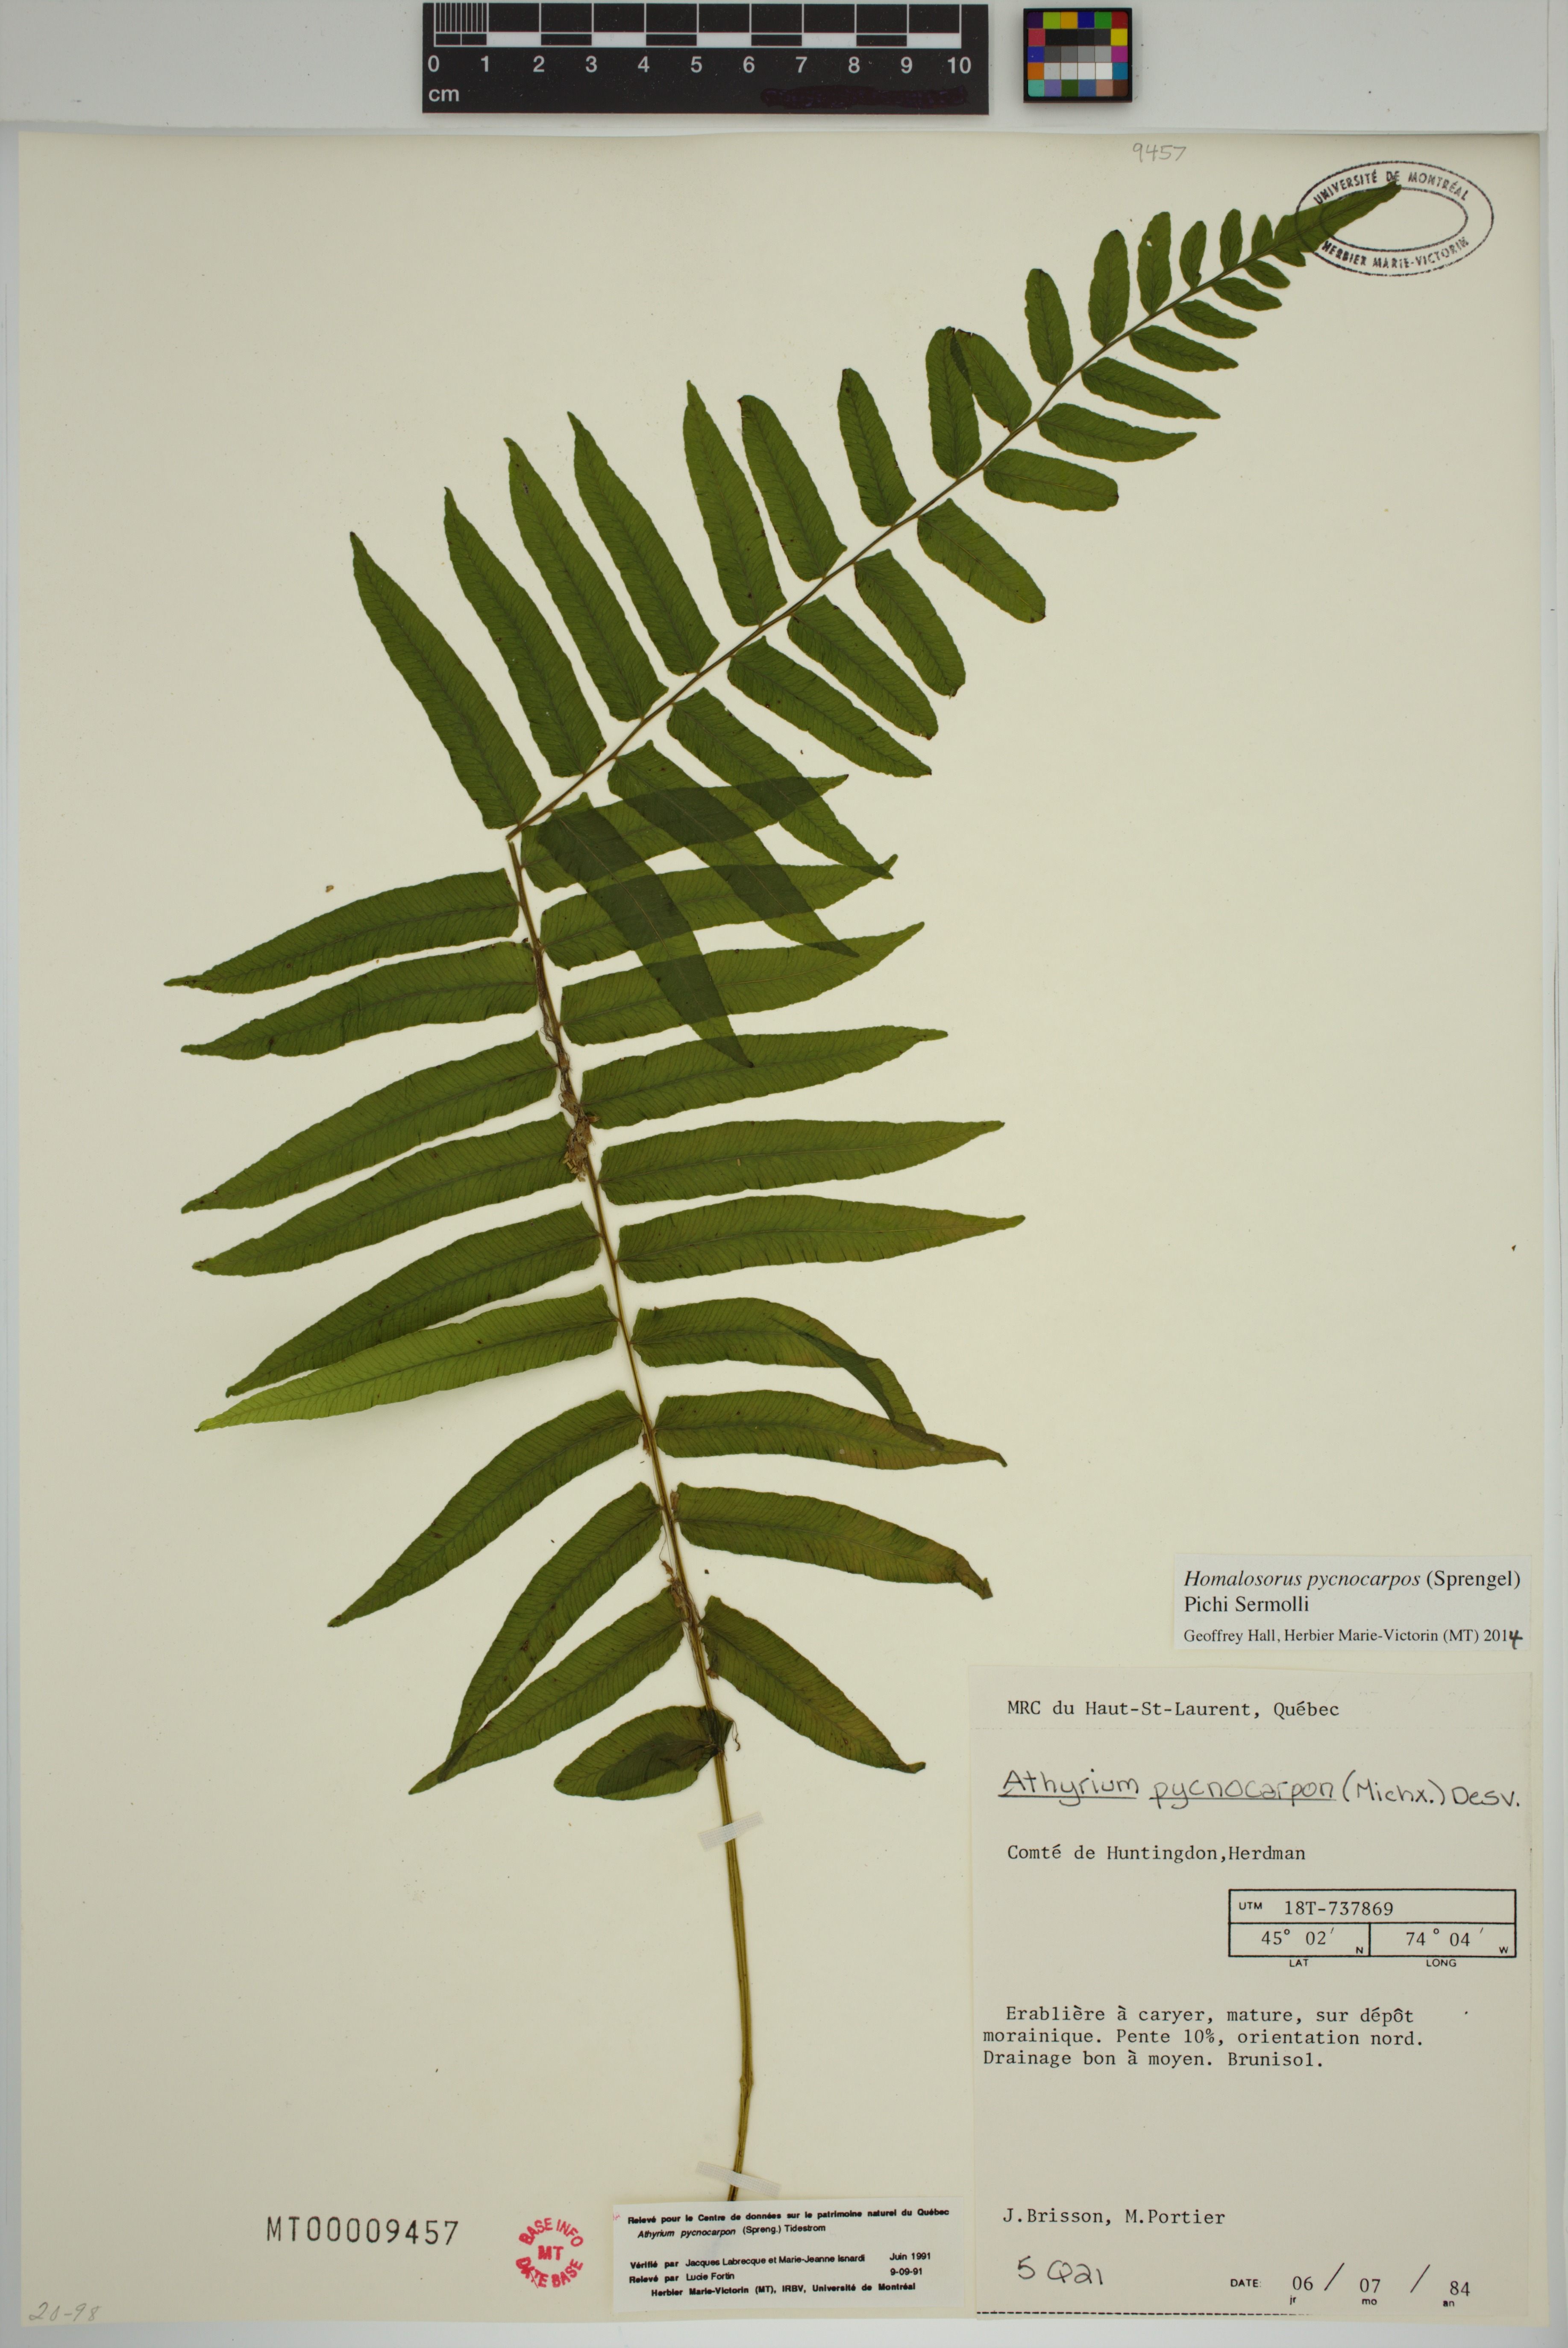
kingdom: Plantae
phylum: Tracheophyta
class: Polypodiopsida
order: Polypodiales
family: Diplaziopsidaceae
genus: Homalosorus
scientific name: Homalosorus pycnocarpos
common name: Glade fern
